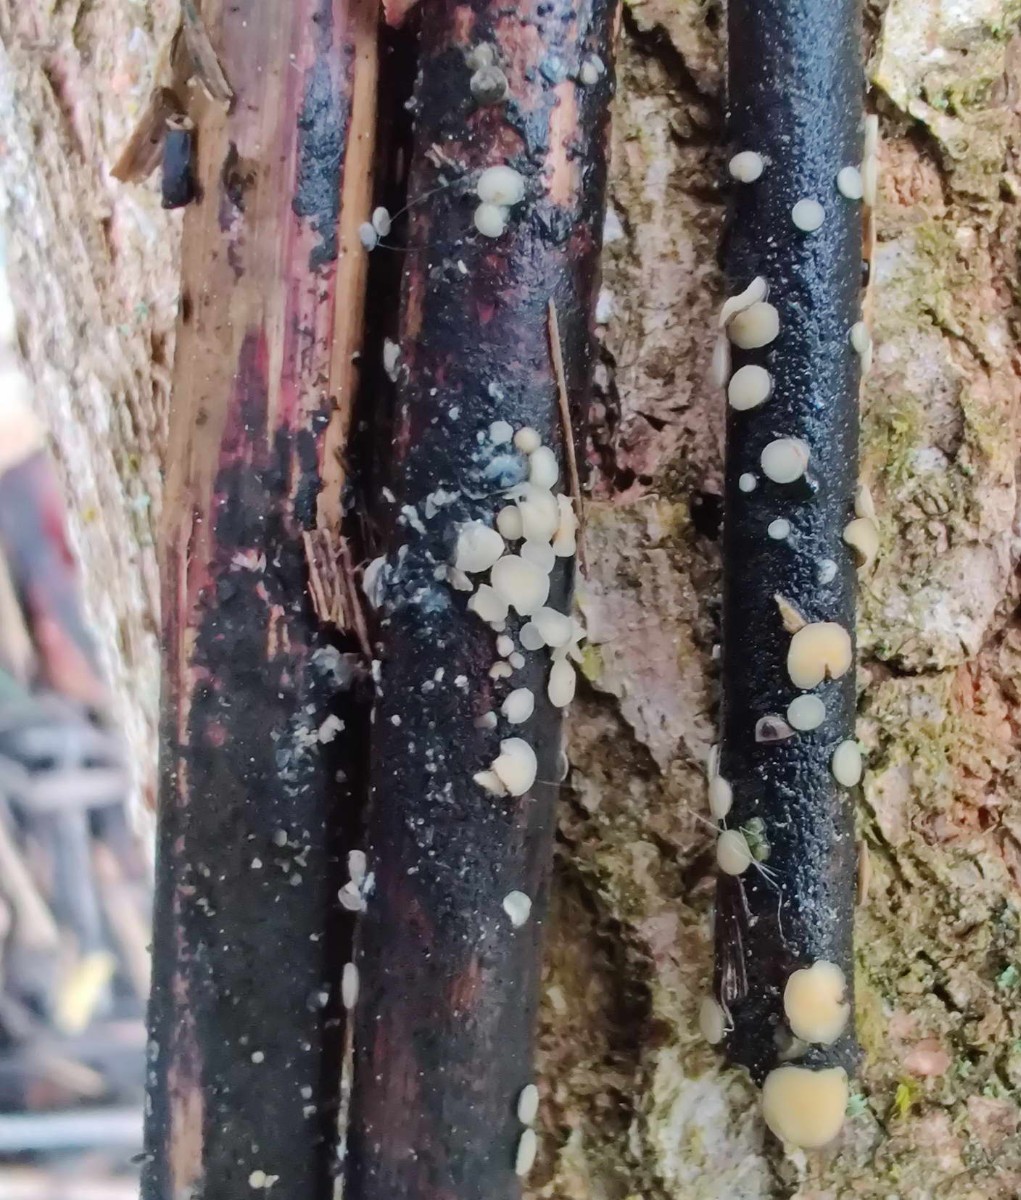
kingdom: Fungi
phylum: Ascomycota
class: Leotiomycetes
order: Helotiales
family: Mollisiaceae
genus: Trichobelonium
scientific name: Trichobelonium kneiffii
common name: tagrør-gråskive
